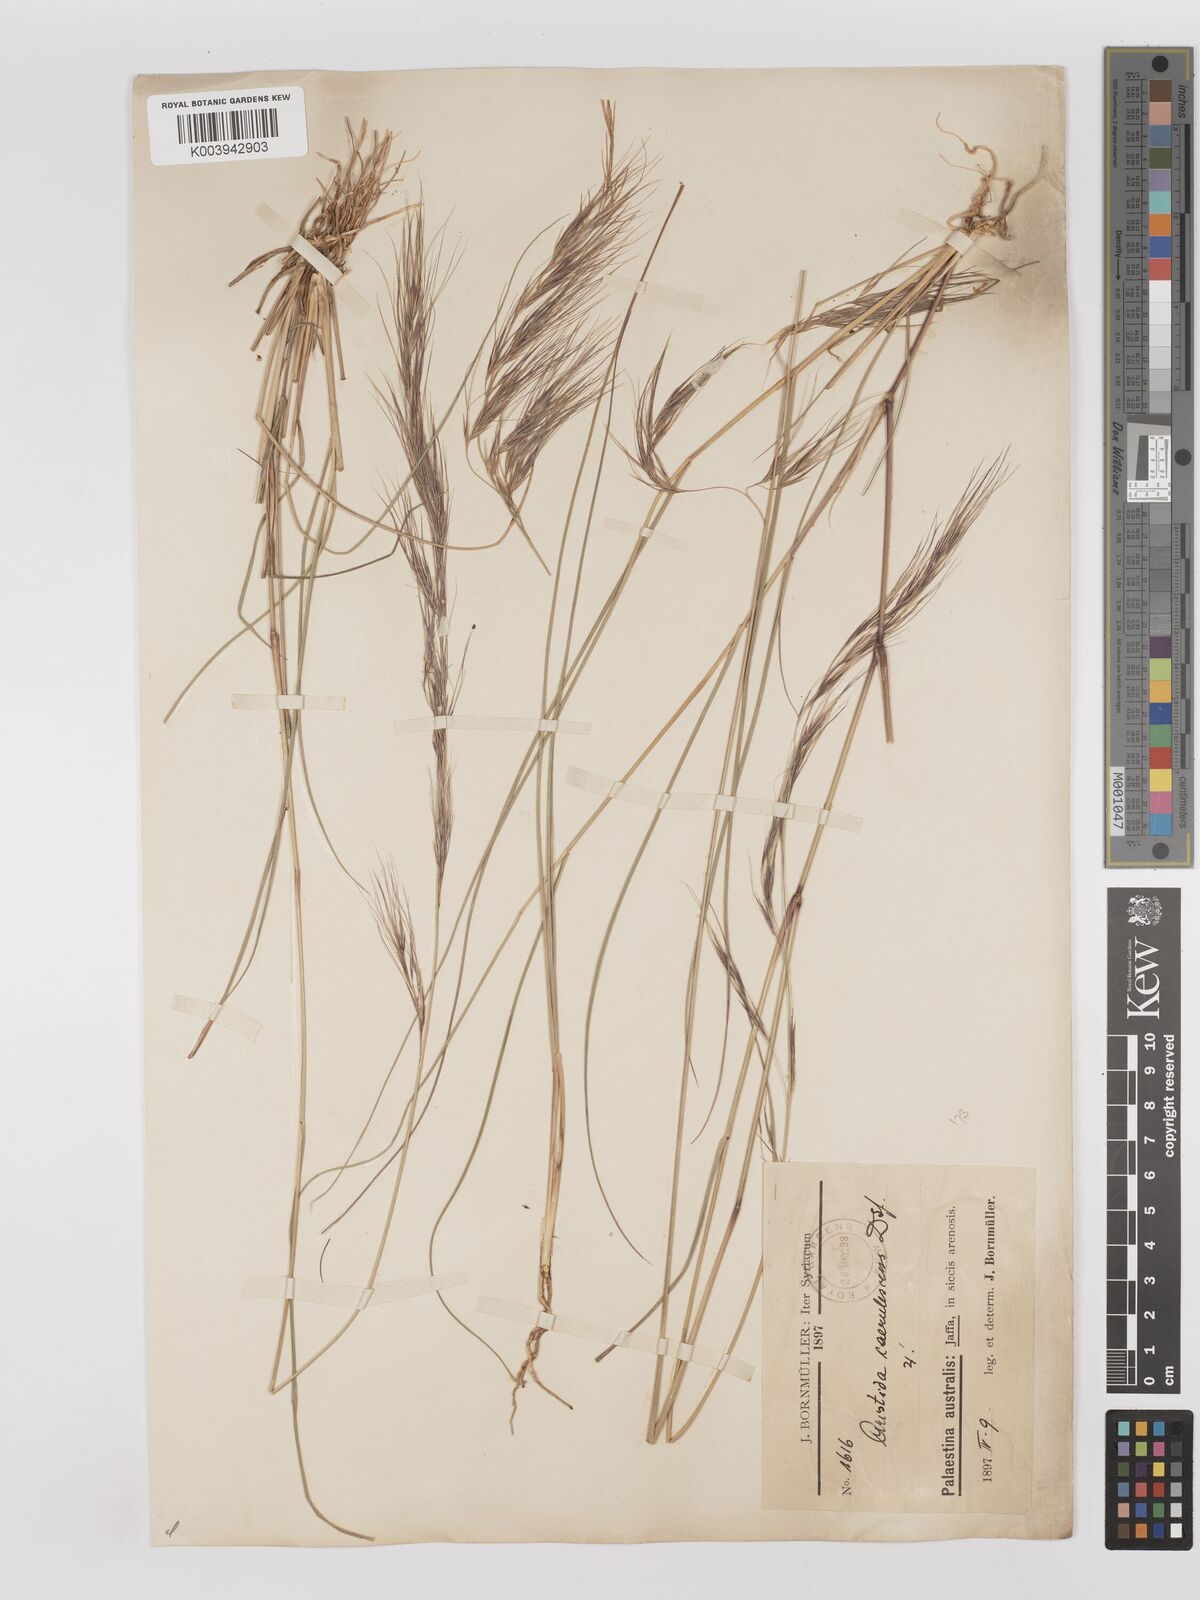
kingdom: Plantae
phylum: Tracheophyta
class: Liliopsida
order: Poales
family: Poaceae
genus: Aristida
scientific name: Aristida adscensionis
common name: Sixweeks threeawn
